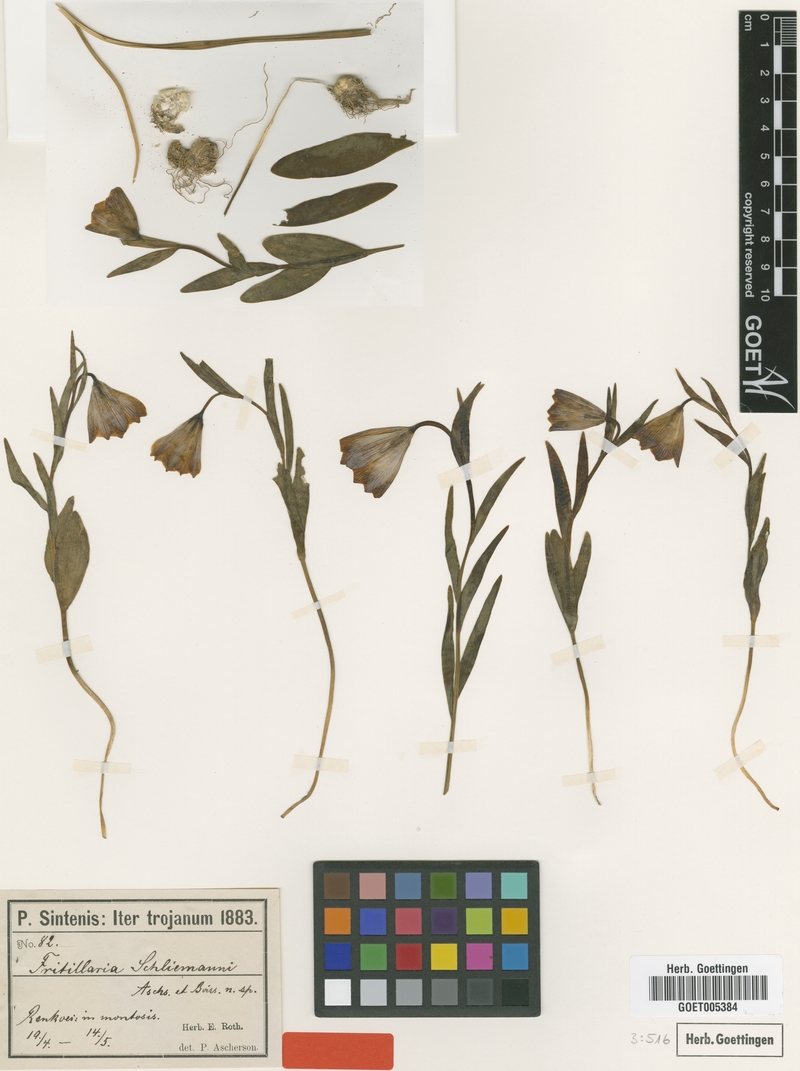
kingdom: Plantae
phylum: Tracheophyta
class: Liliopsida
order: Liliales
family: Liliaceae
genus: Fritillaria
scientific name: Fritillaria schliemanni
